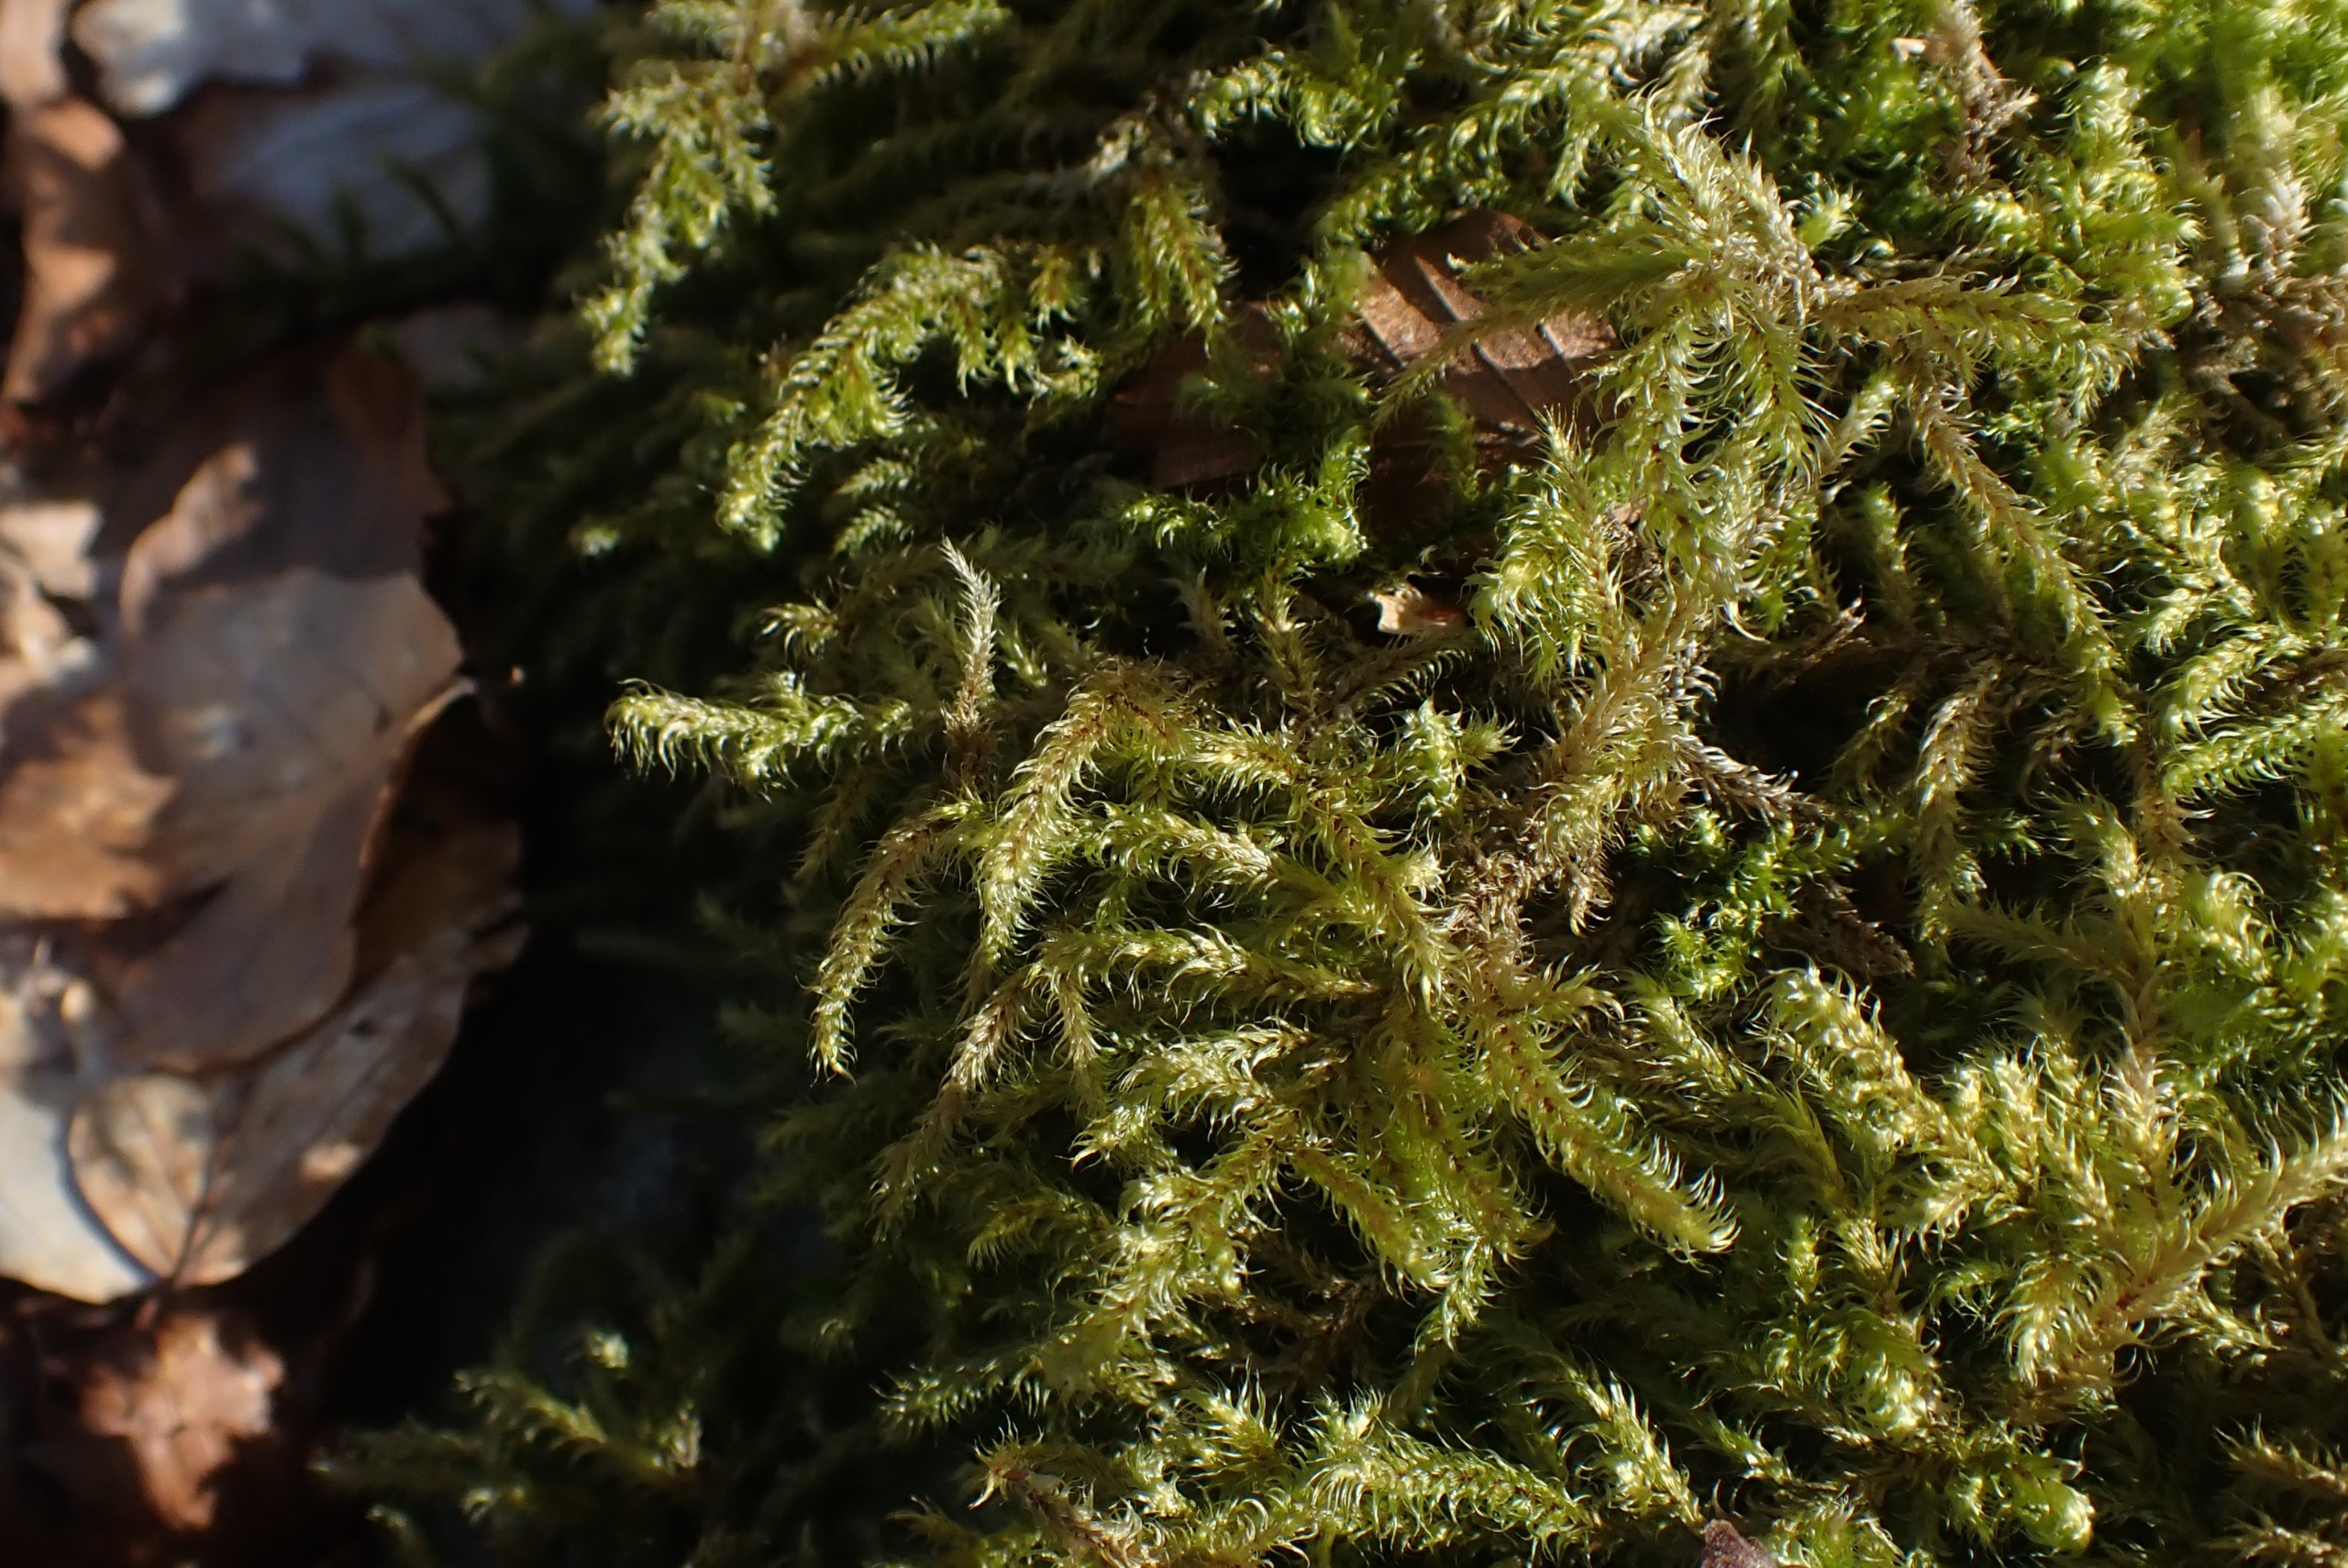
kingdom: Plantae
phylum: Bryophyta
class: Bryopsida
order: Hypnales
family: Hylocomiaceae
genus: Rhytidiadelphus
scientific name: Rhytidiadelphus loreus
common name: Ulvefod-kransemos
